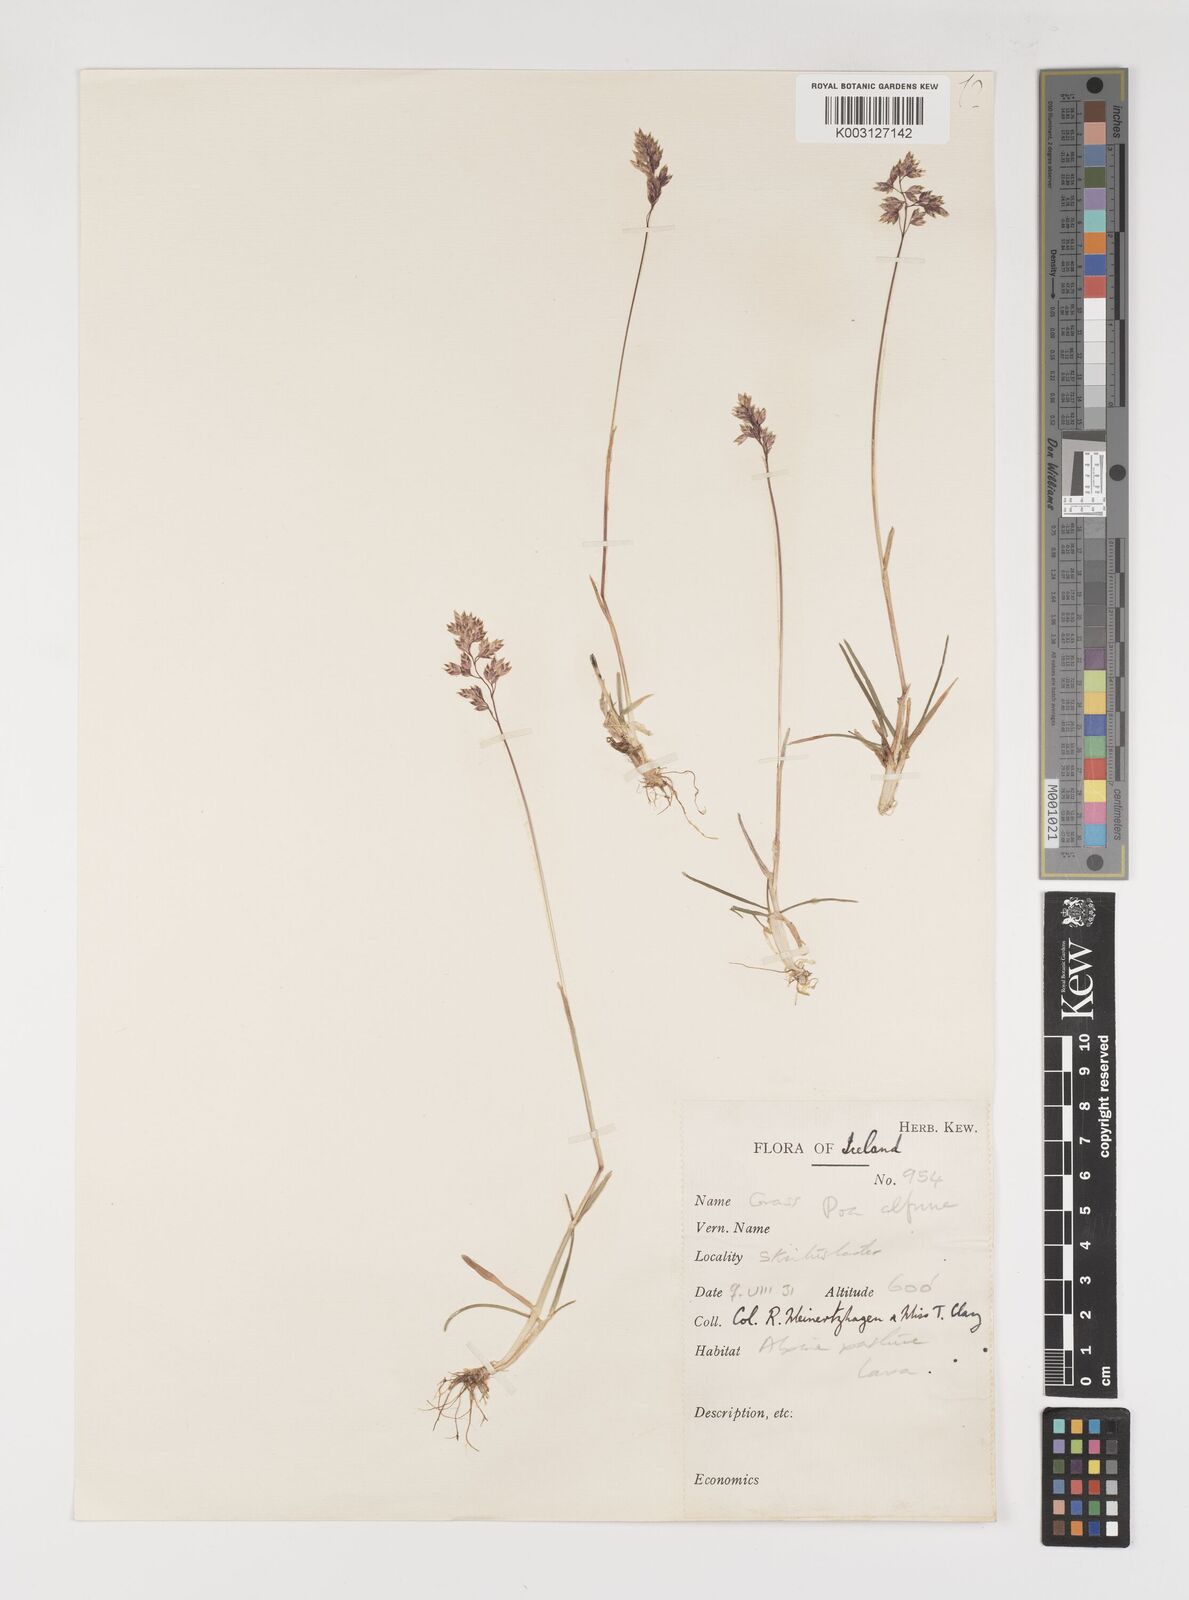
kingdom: Plantae
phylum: Tracheophyta
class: Liliopsida
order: Poales
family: Poaceae
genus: Poa
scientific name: Poa alpina
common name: Alpine bluegrass
